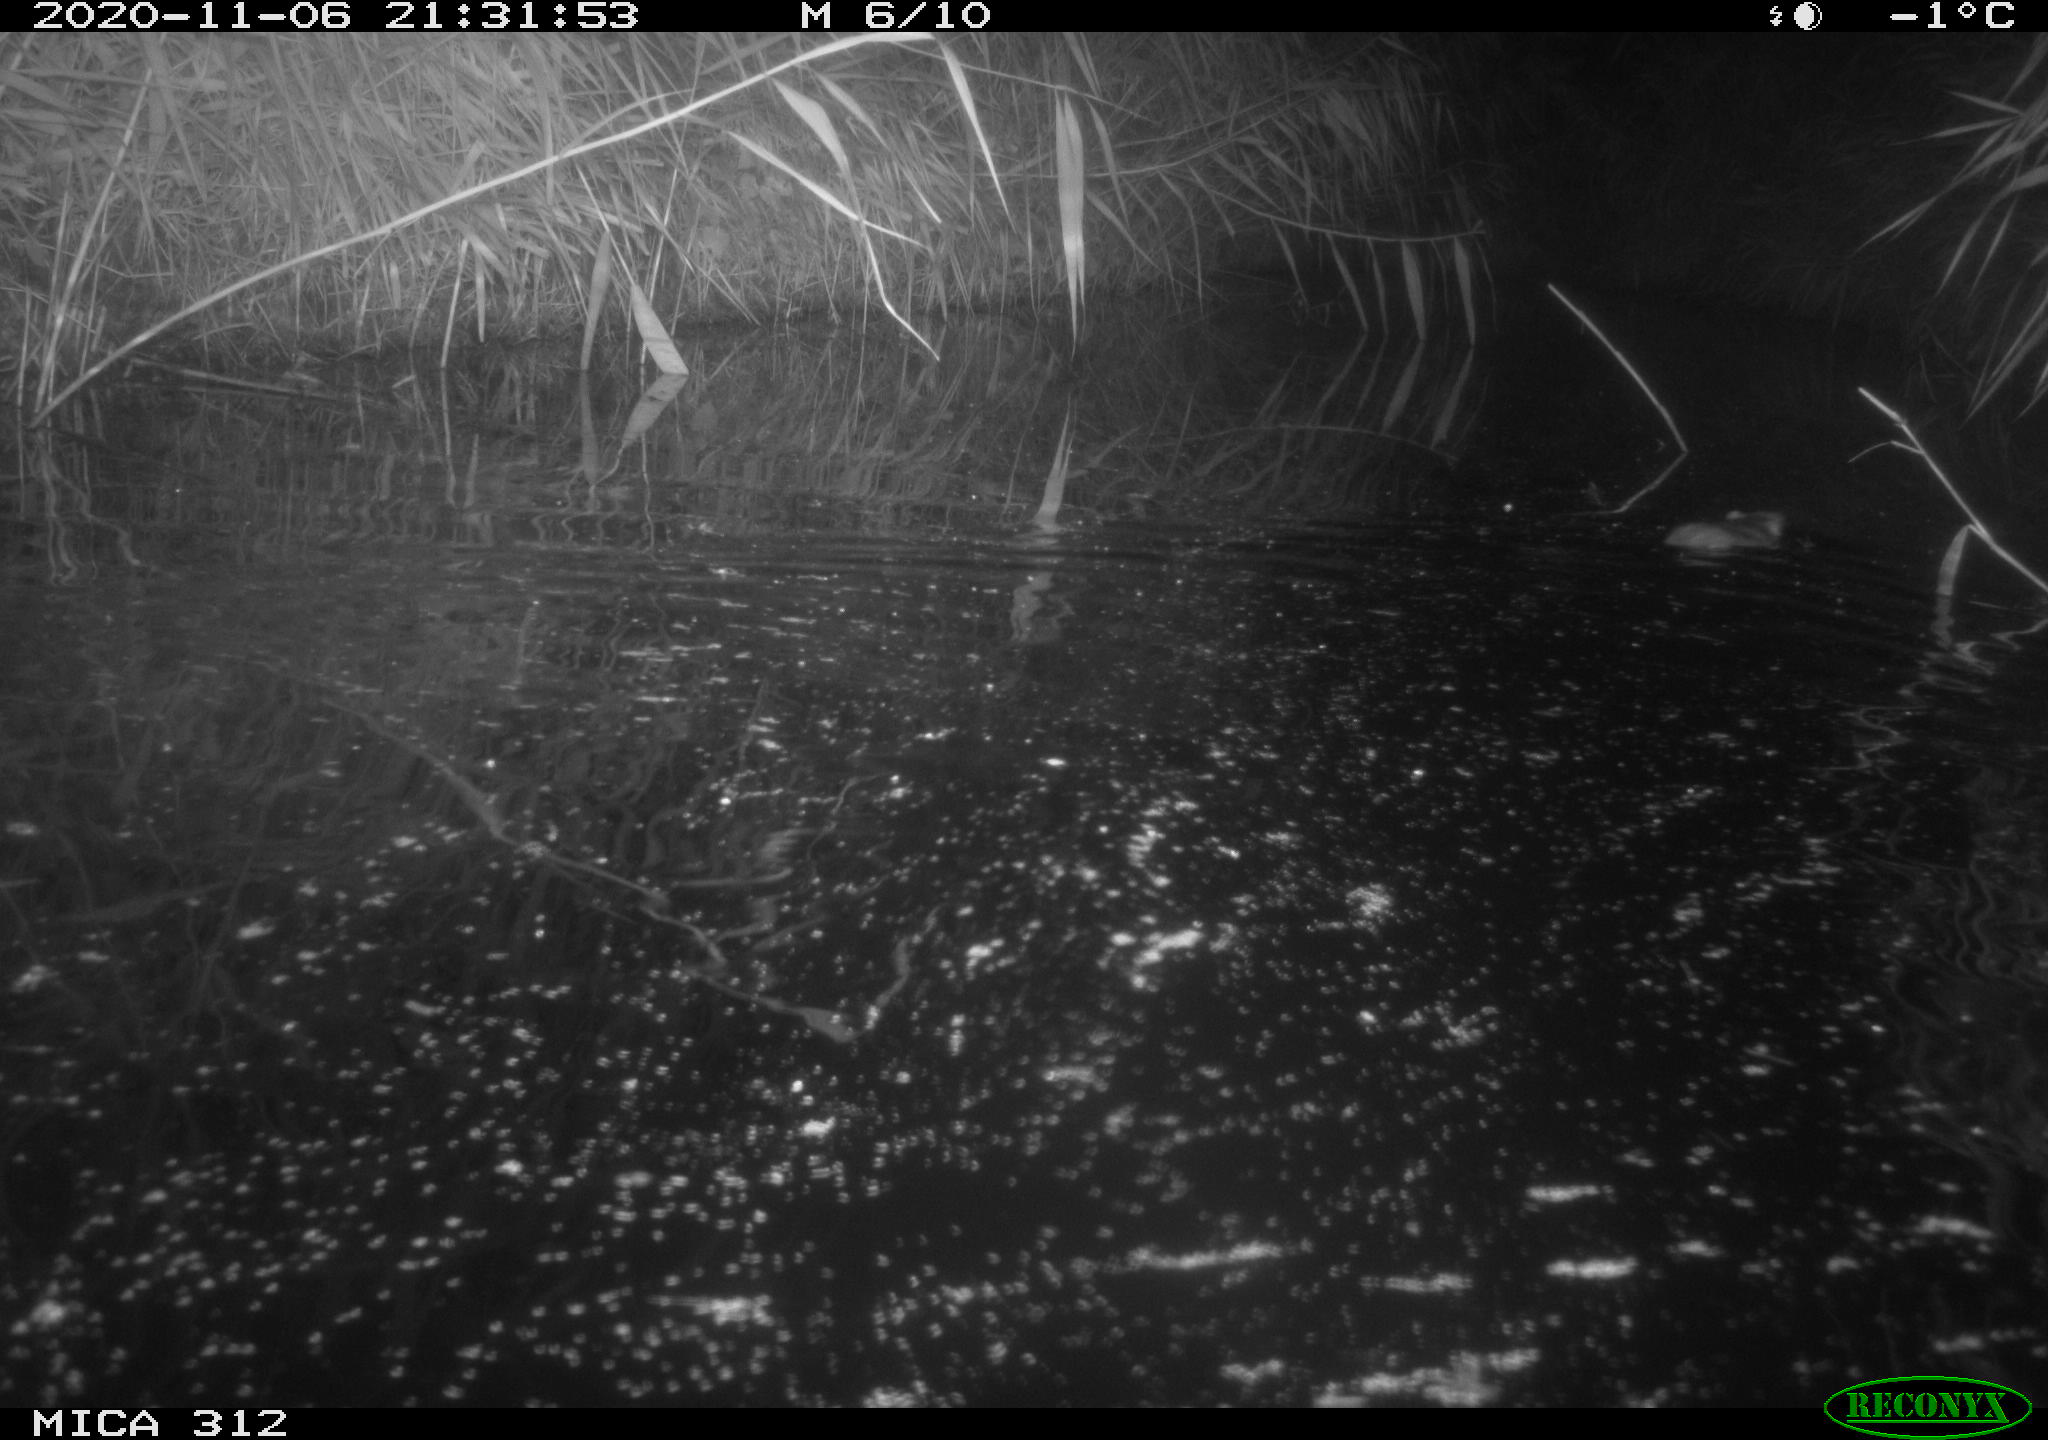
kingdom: Animalia
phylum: Chordata
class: Mammalia
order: Rodentia
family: Muridae
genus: Rattus
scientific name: Rattus norvegicus
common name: Brown rat
